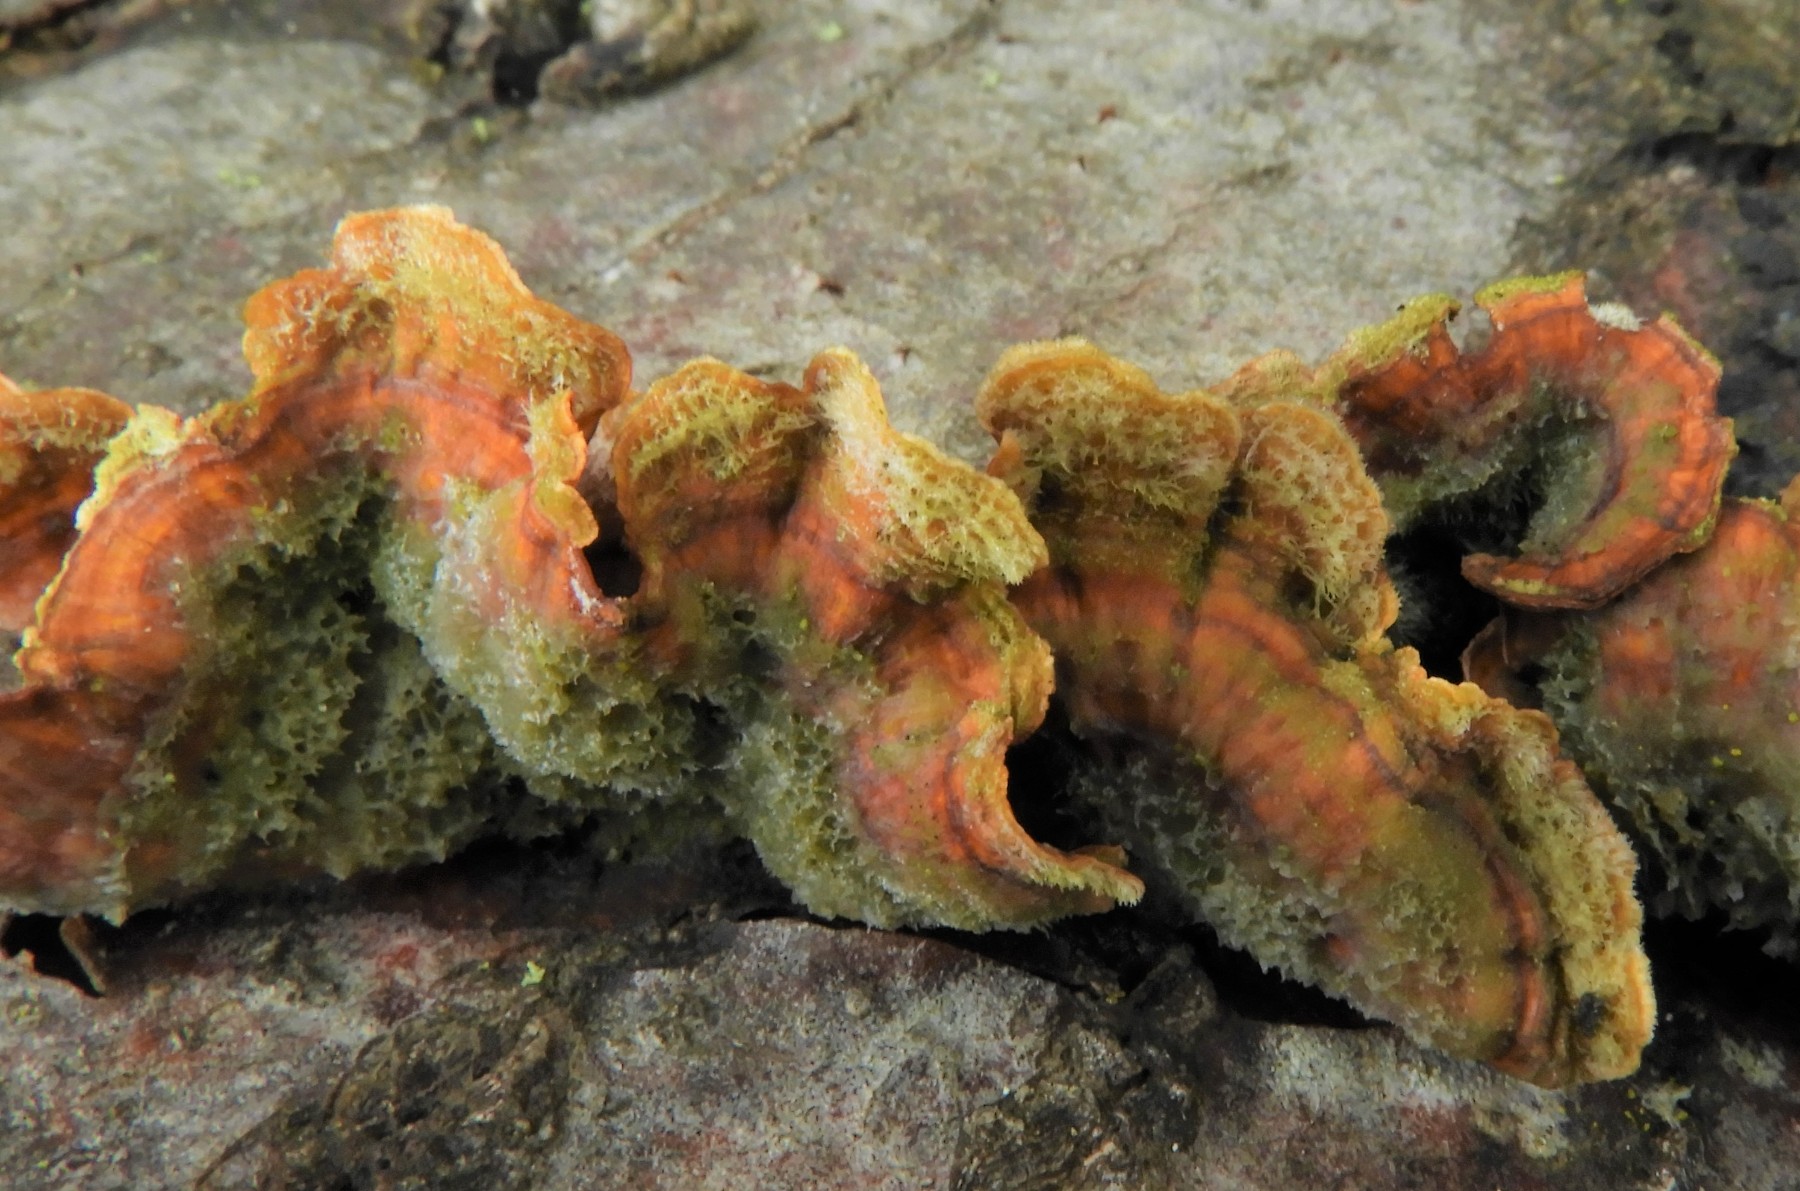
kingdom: Fungi
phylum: Basidiomycota
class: Agaricomycetes
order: Russulales
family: Stereaceae
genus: Stereum
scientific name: Stereum subtomentosum
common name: smuk lædersvamp
